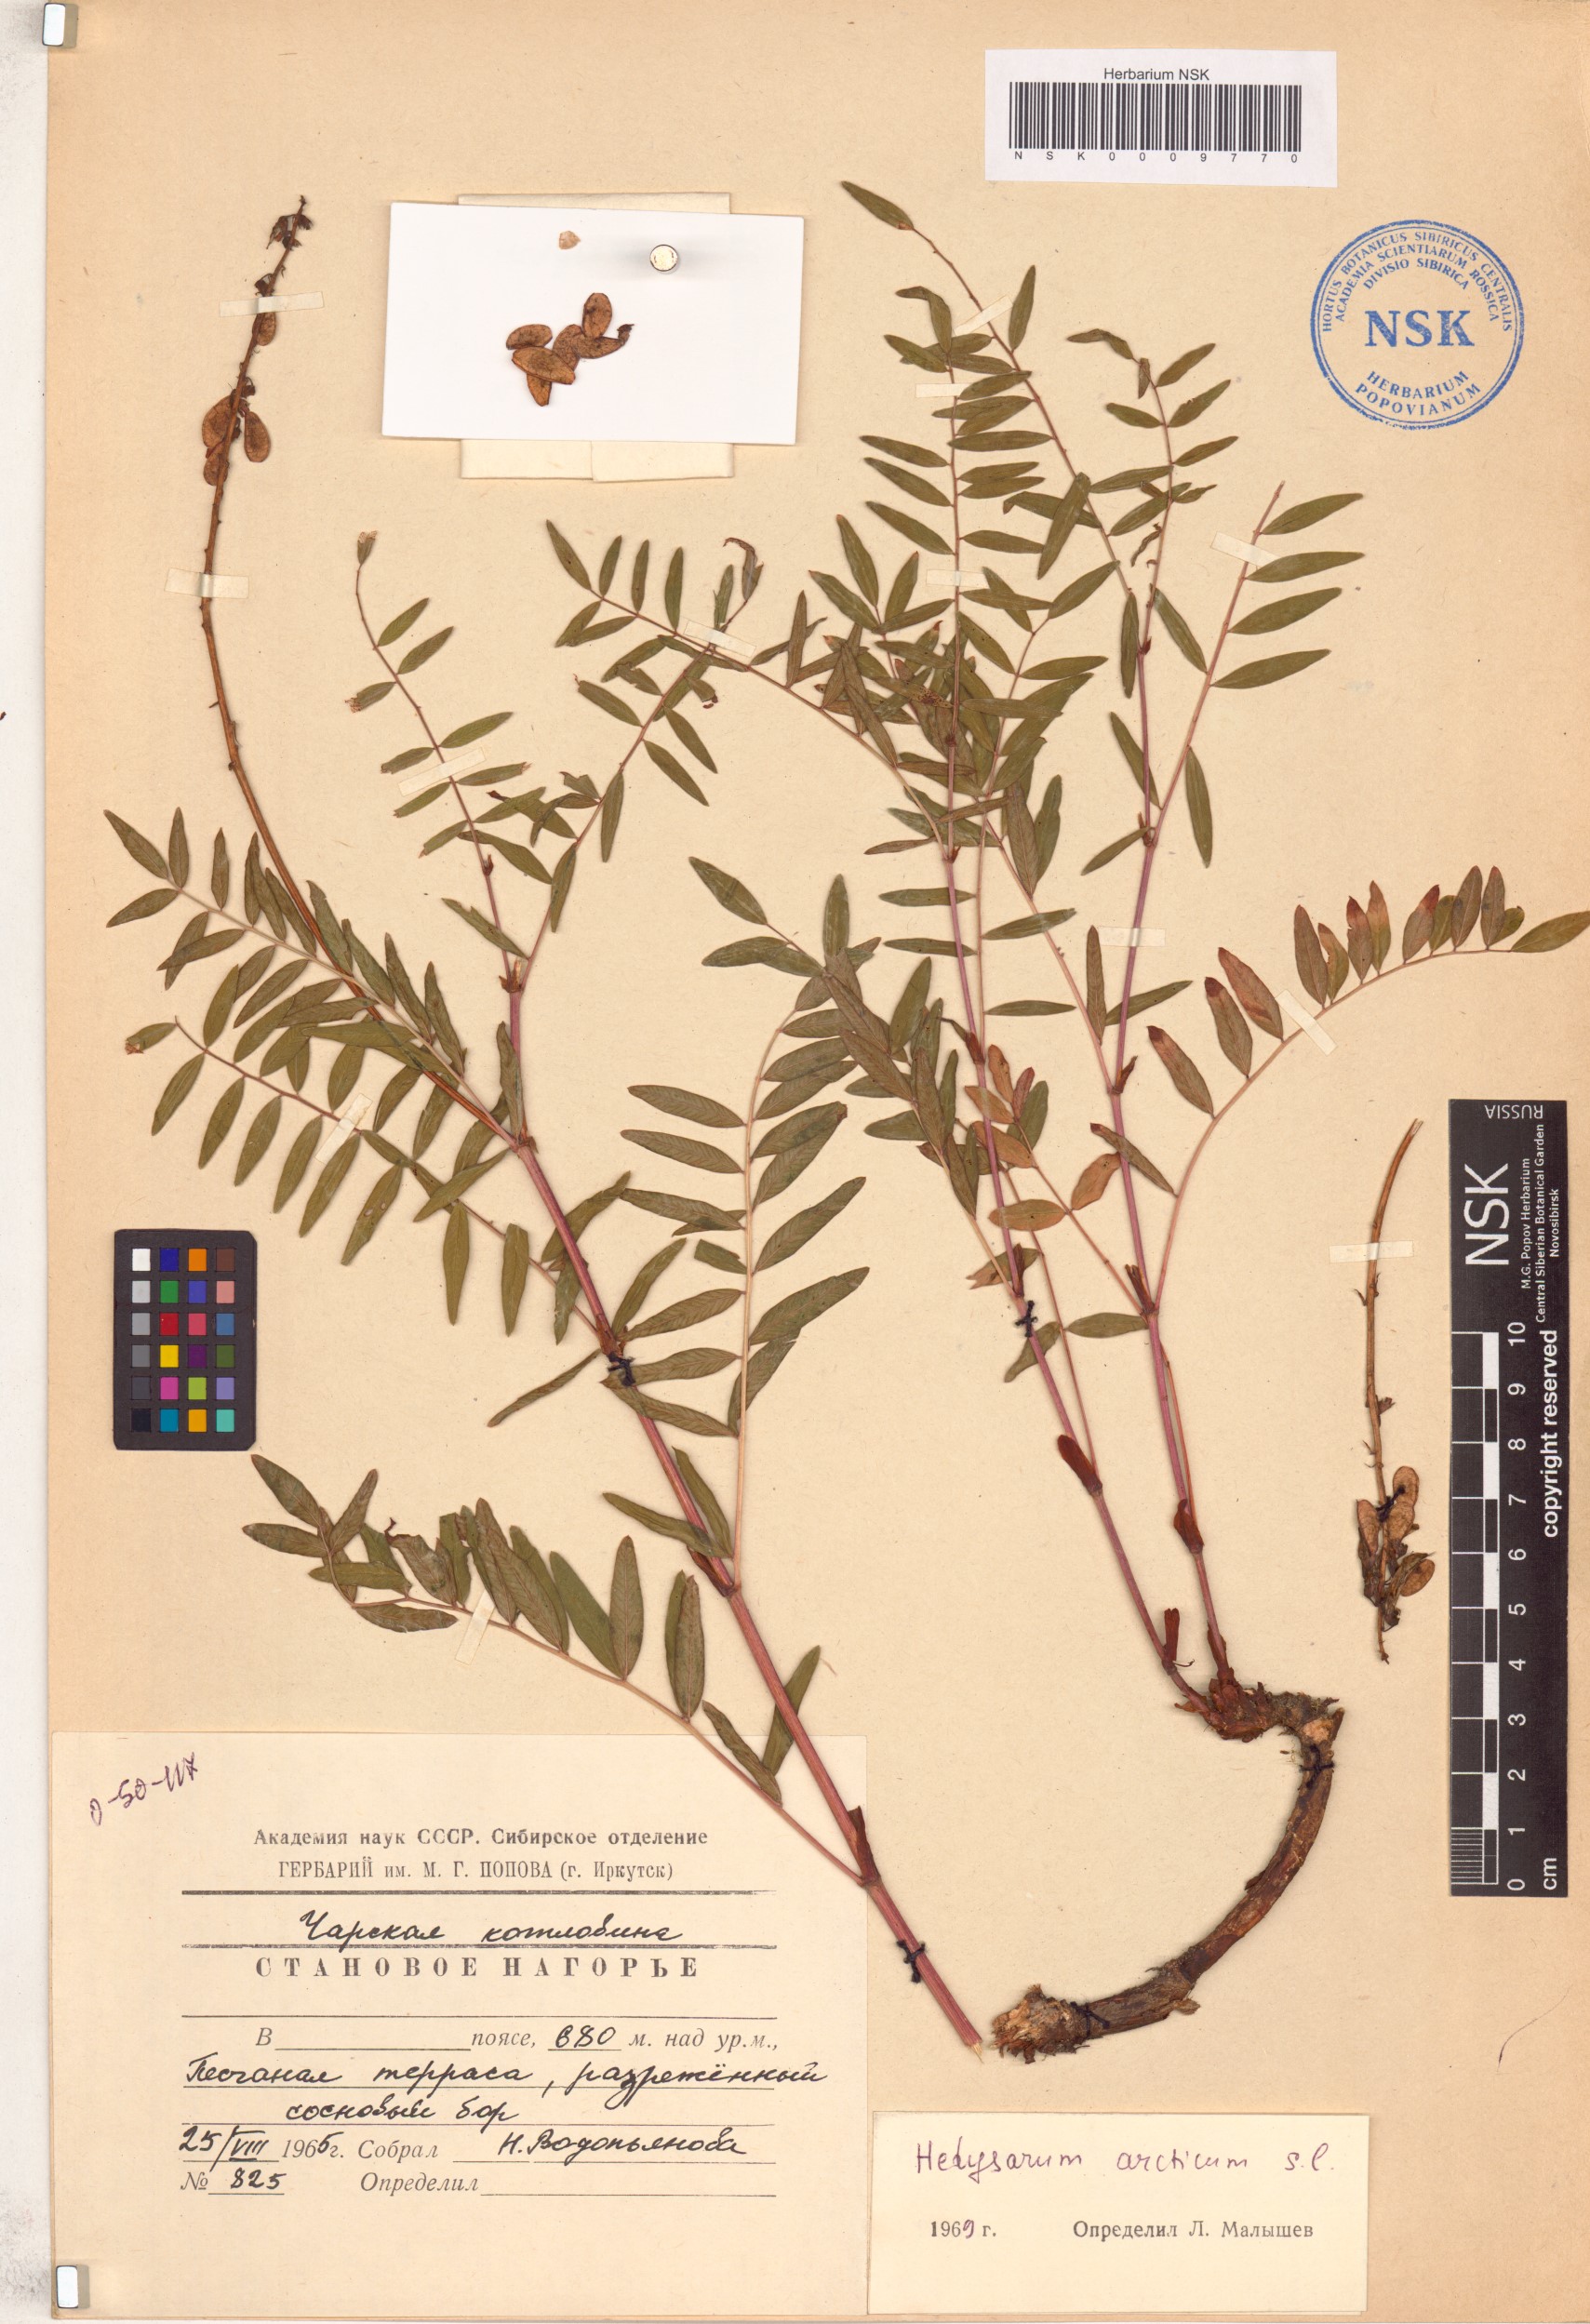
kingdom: Plantae
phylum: Tracheophyta
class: Magnoliopsida
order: Fabales
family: Fabaceae
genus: Hedysarum
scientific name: Hedysarum hedysaroides
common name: Alpine french-honeysuckle
